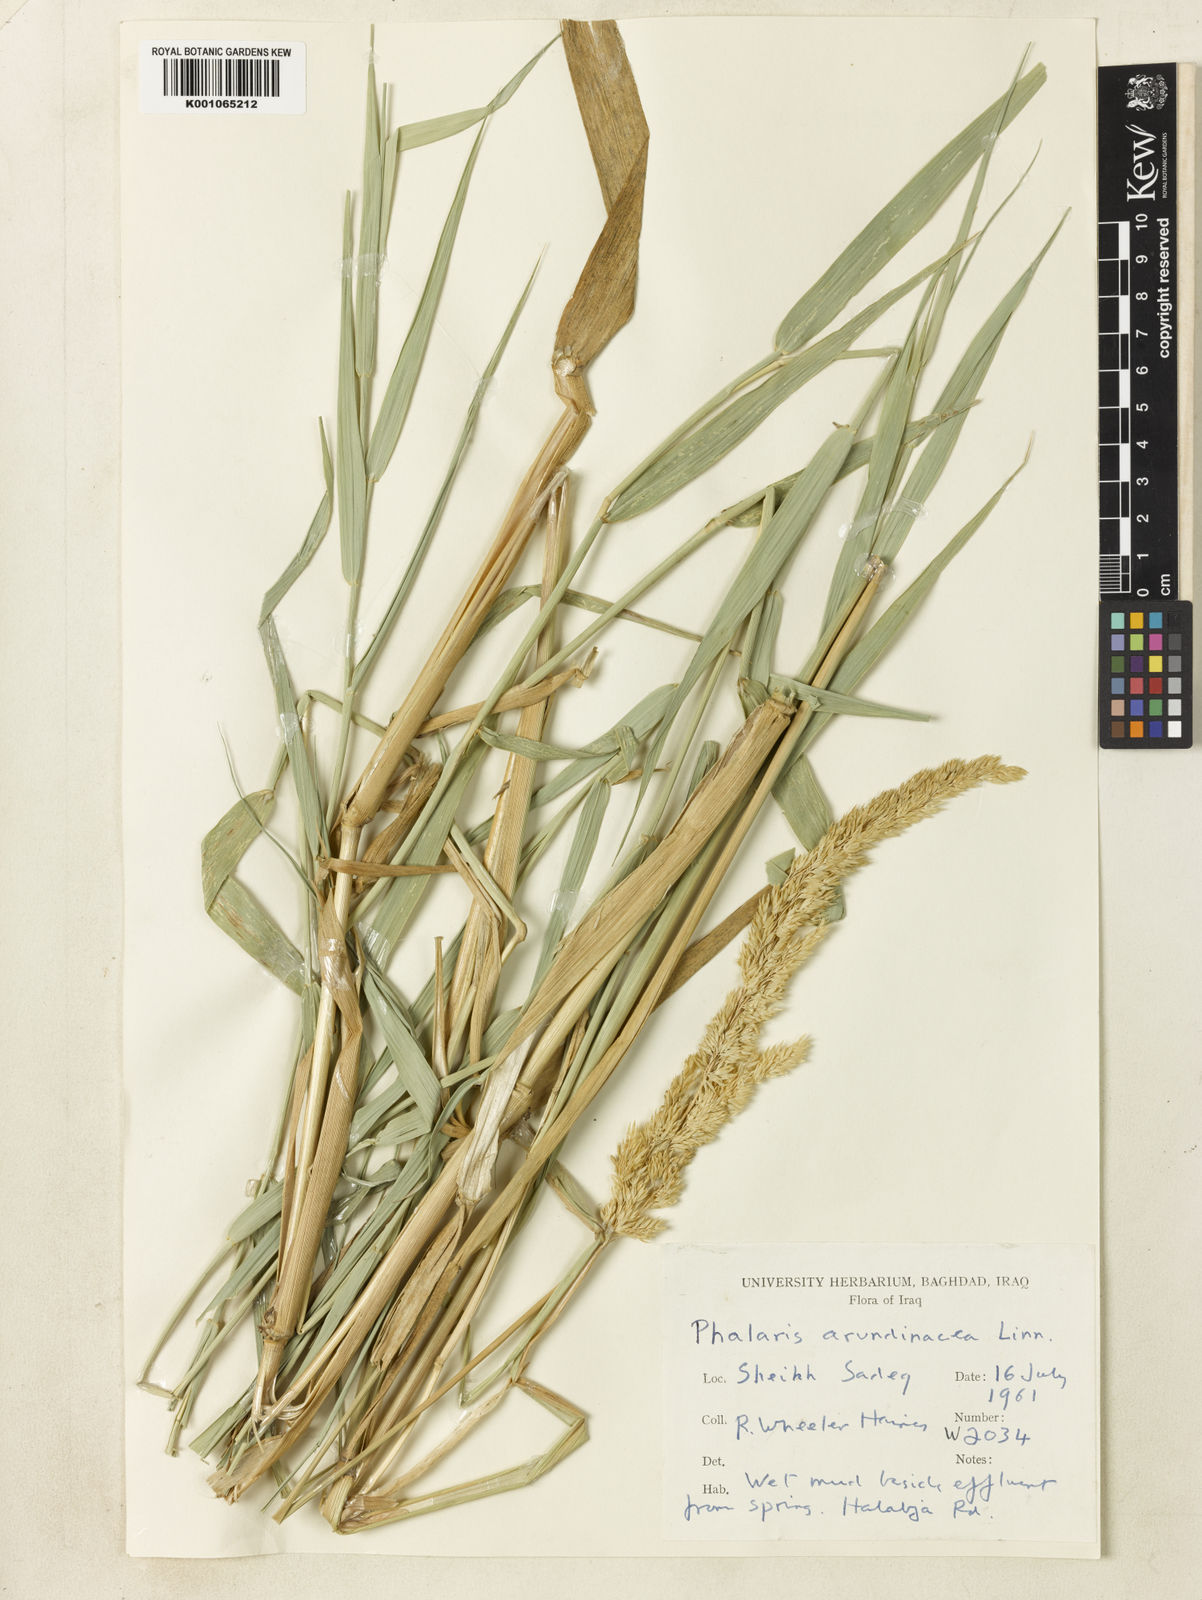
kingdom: Plantae
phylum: Tracheophyta
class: Liliopsida
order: Poales
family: Poaceae
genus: Dactylis
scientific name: Dactylis glomerata
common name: Orchardgrass
